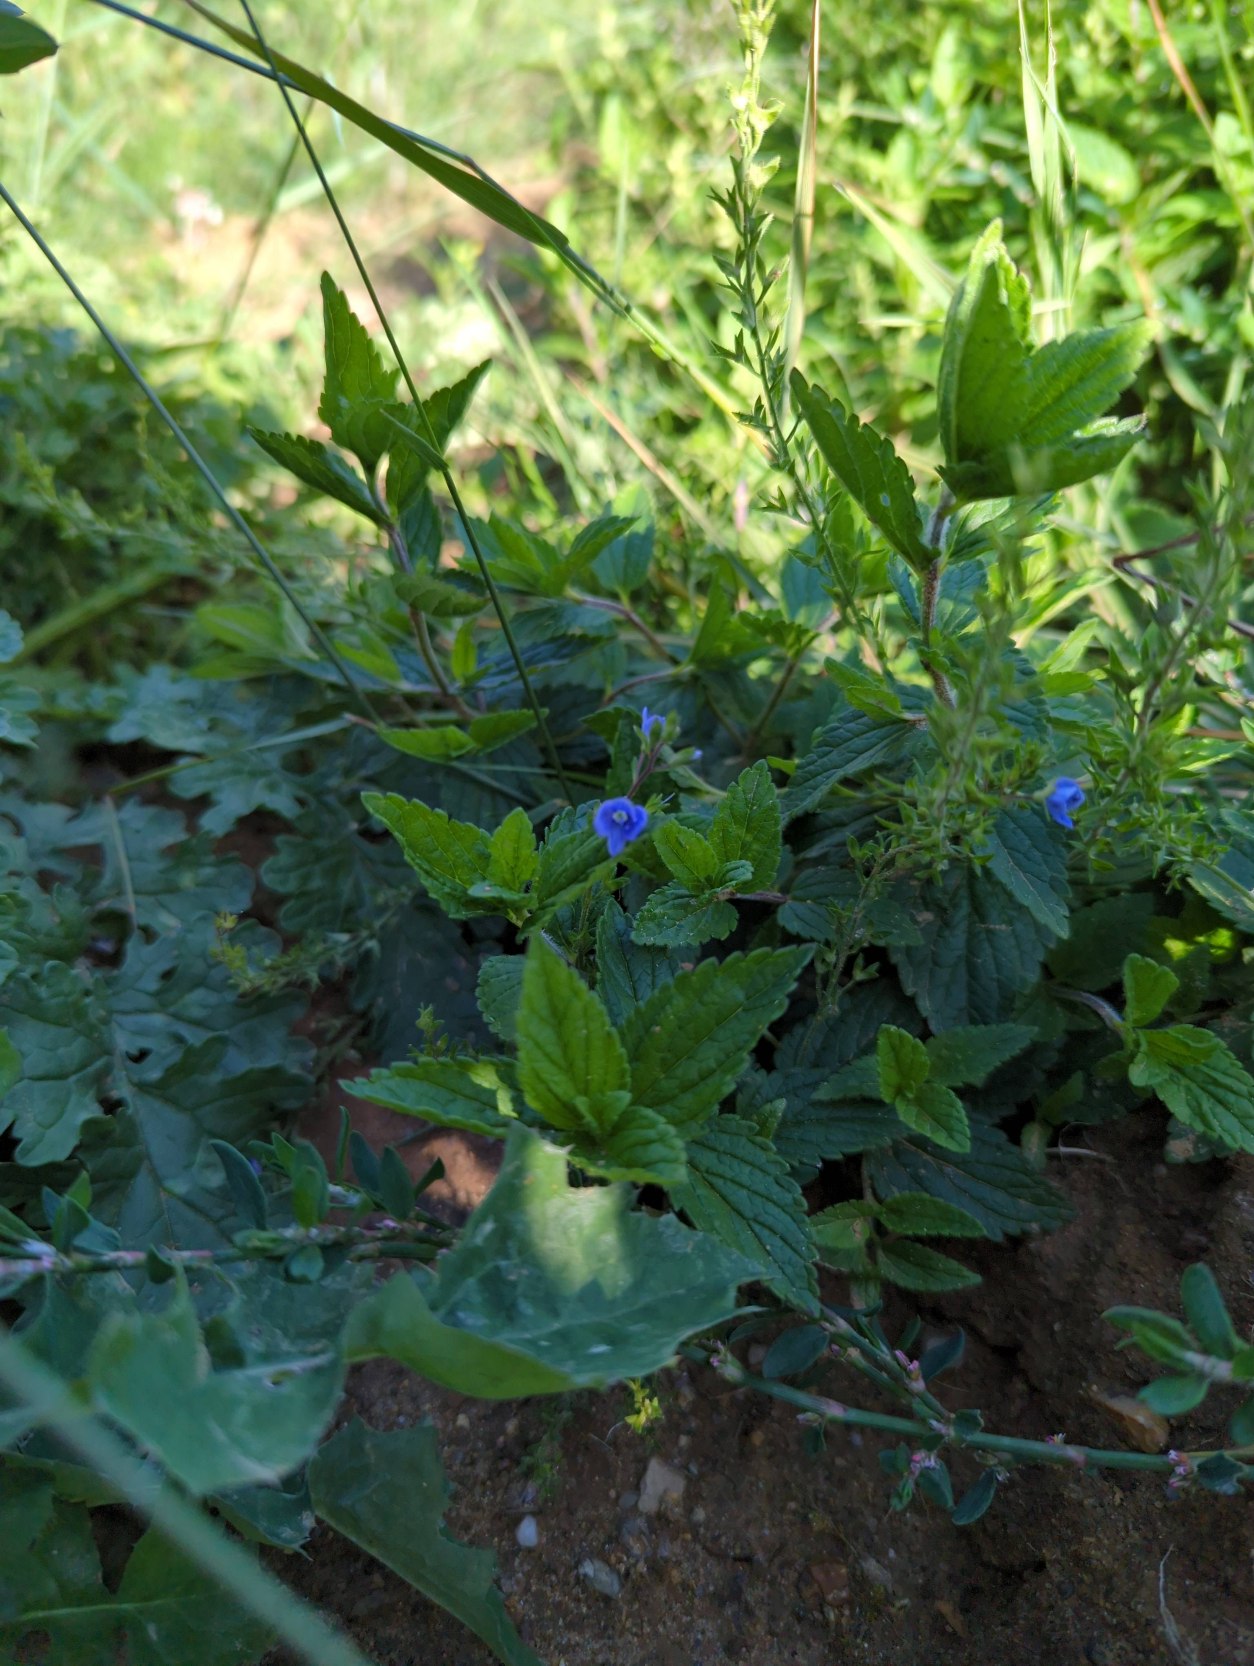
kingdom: Plantae
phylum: Tracheophyta
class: Magnoliopsida
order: Lamiales
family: Plantaginaceae
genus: Veronica
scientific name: Veronica chamaedrys
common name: Tveskægget ærenpris
